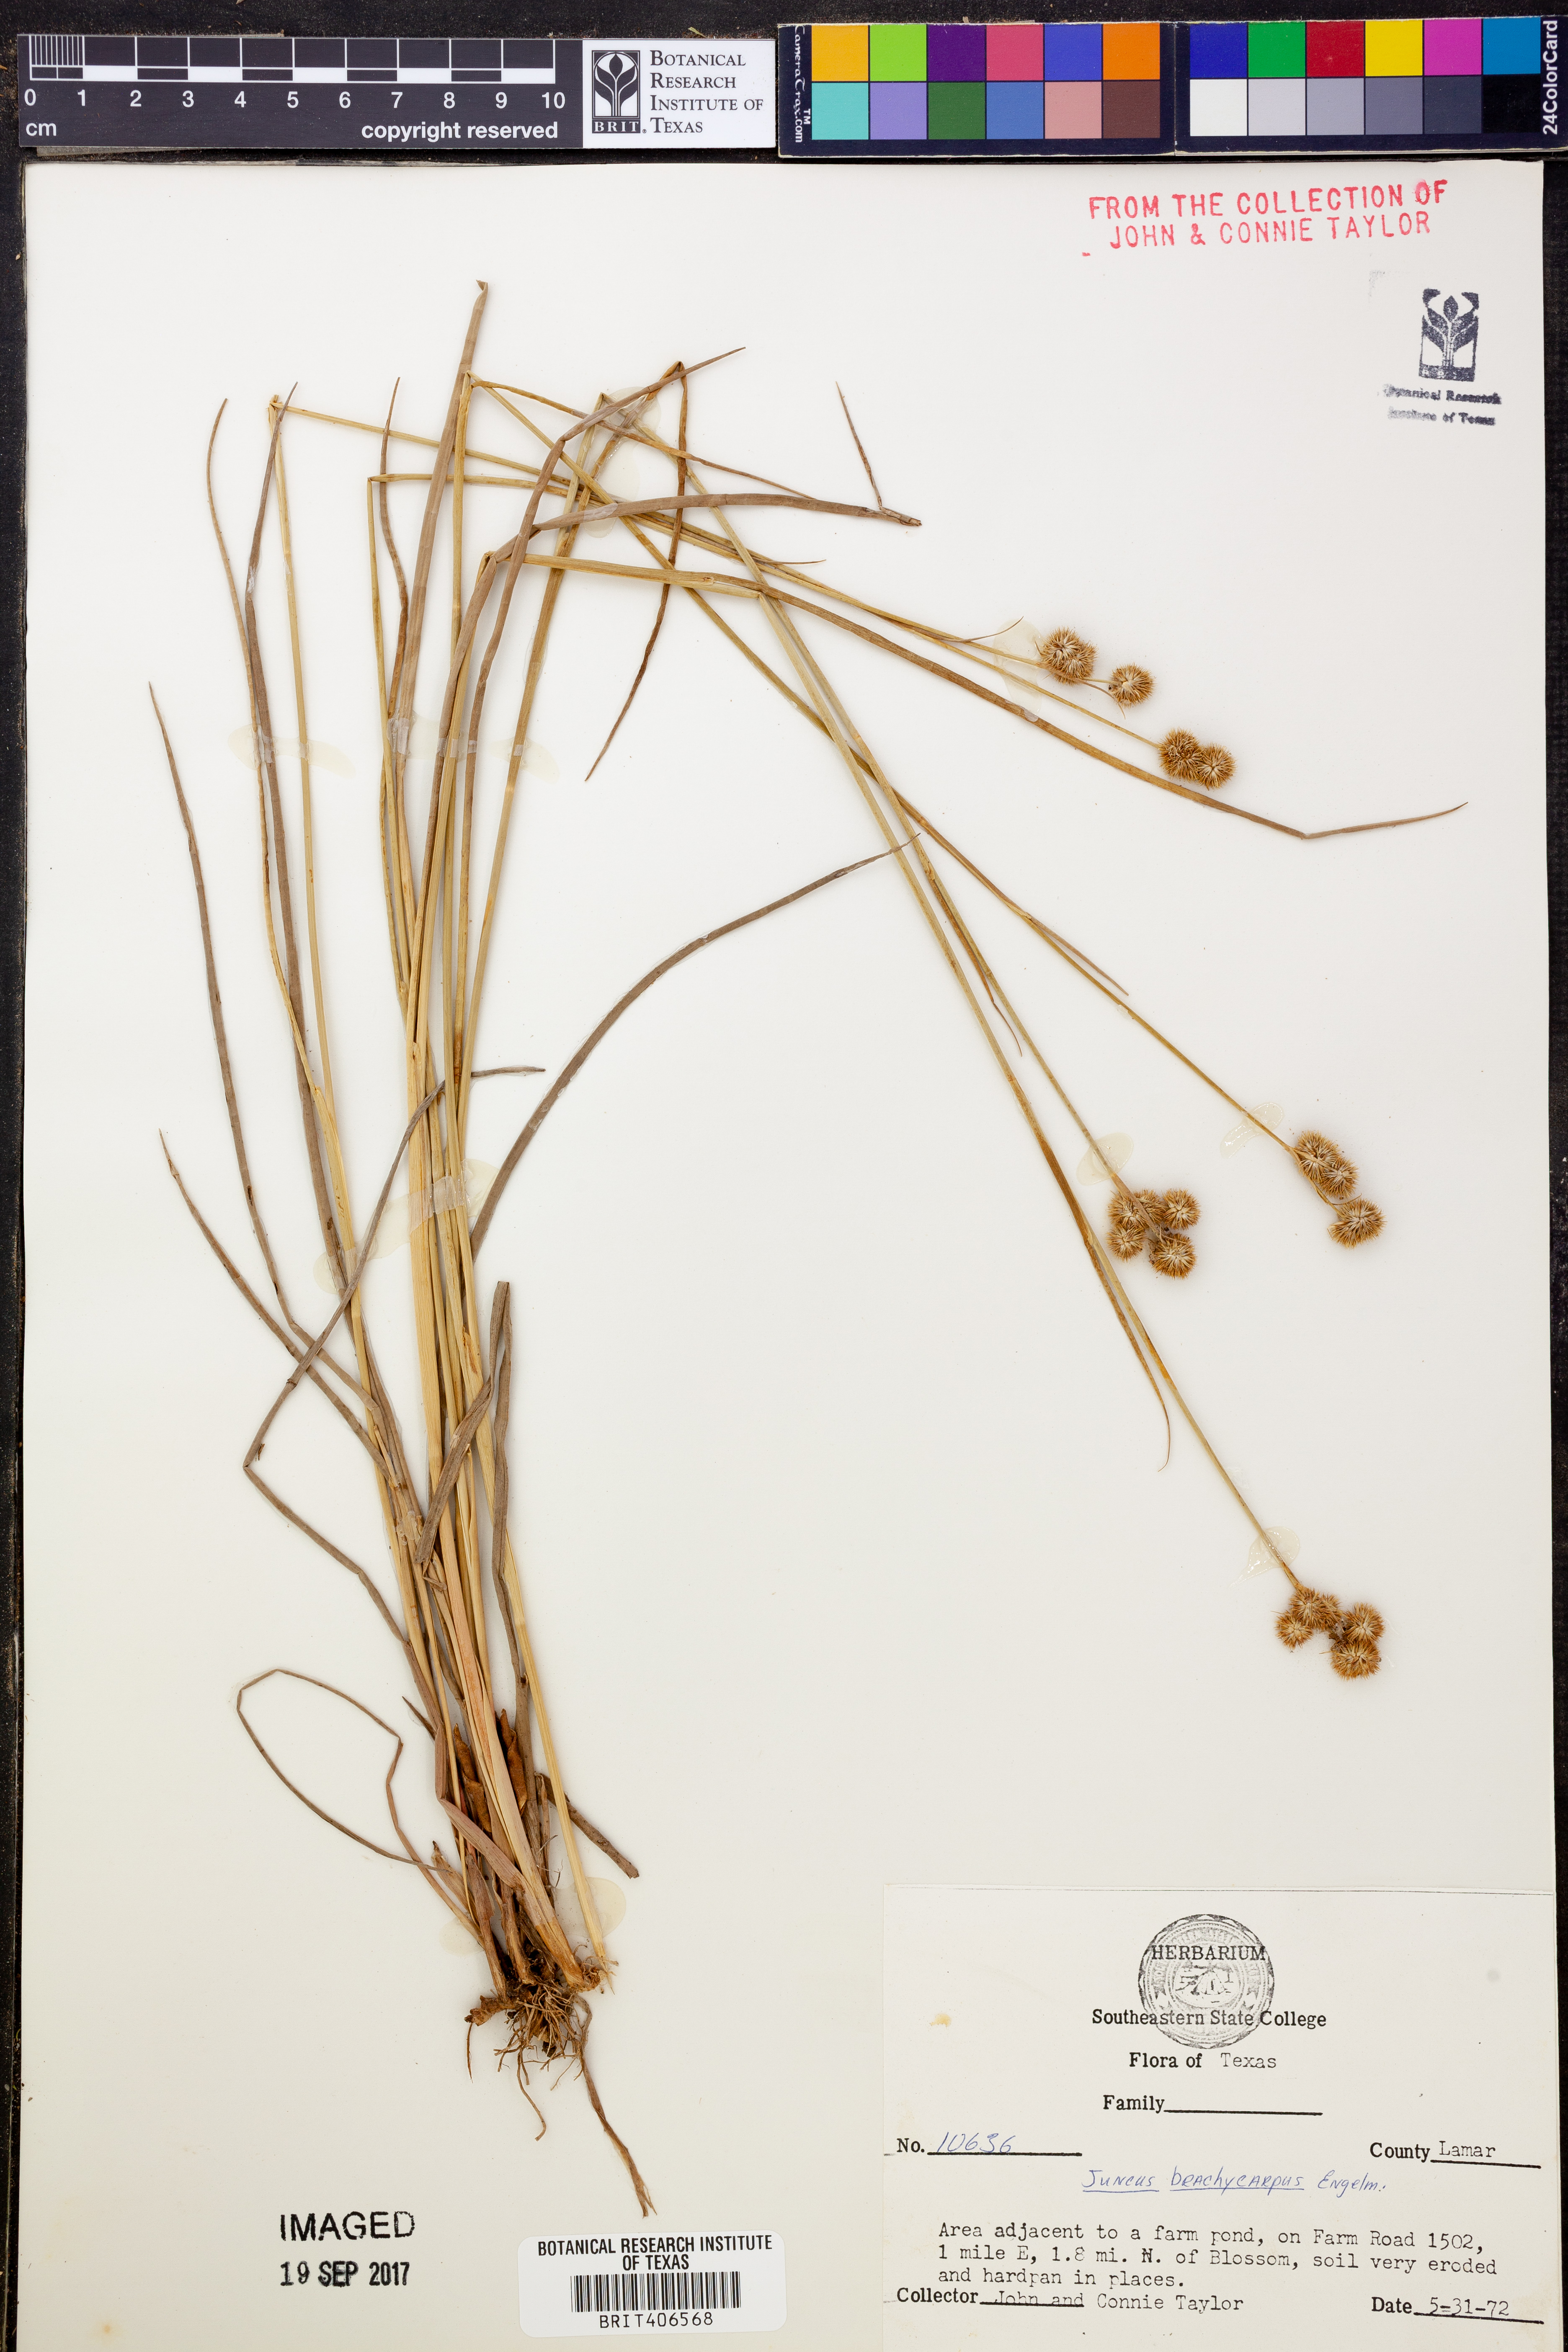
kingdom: Plantae
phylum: Tracheophyta
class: Liliopsida
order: Poales
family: Juncaceae
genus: Juncus
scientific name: Juncus brachycarpus
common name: Shore rush
